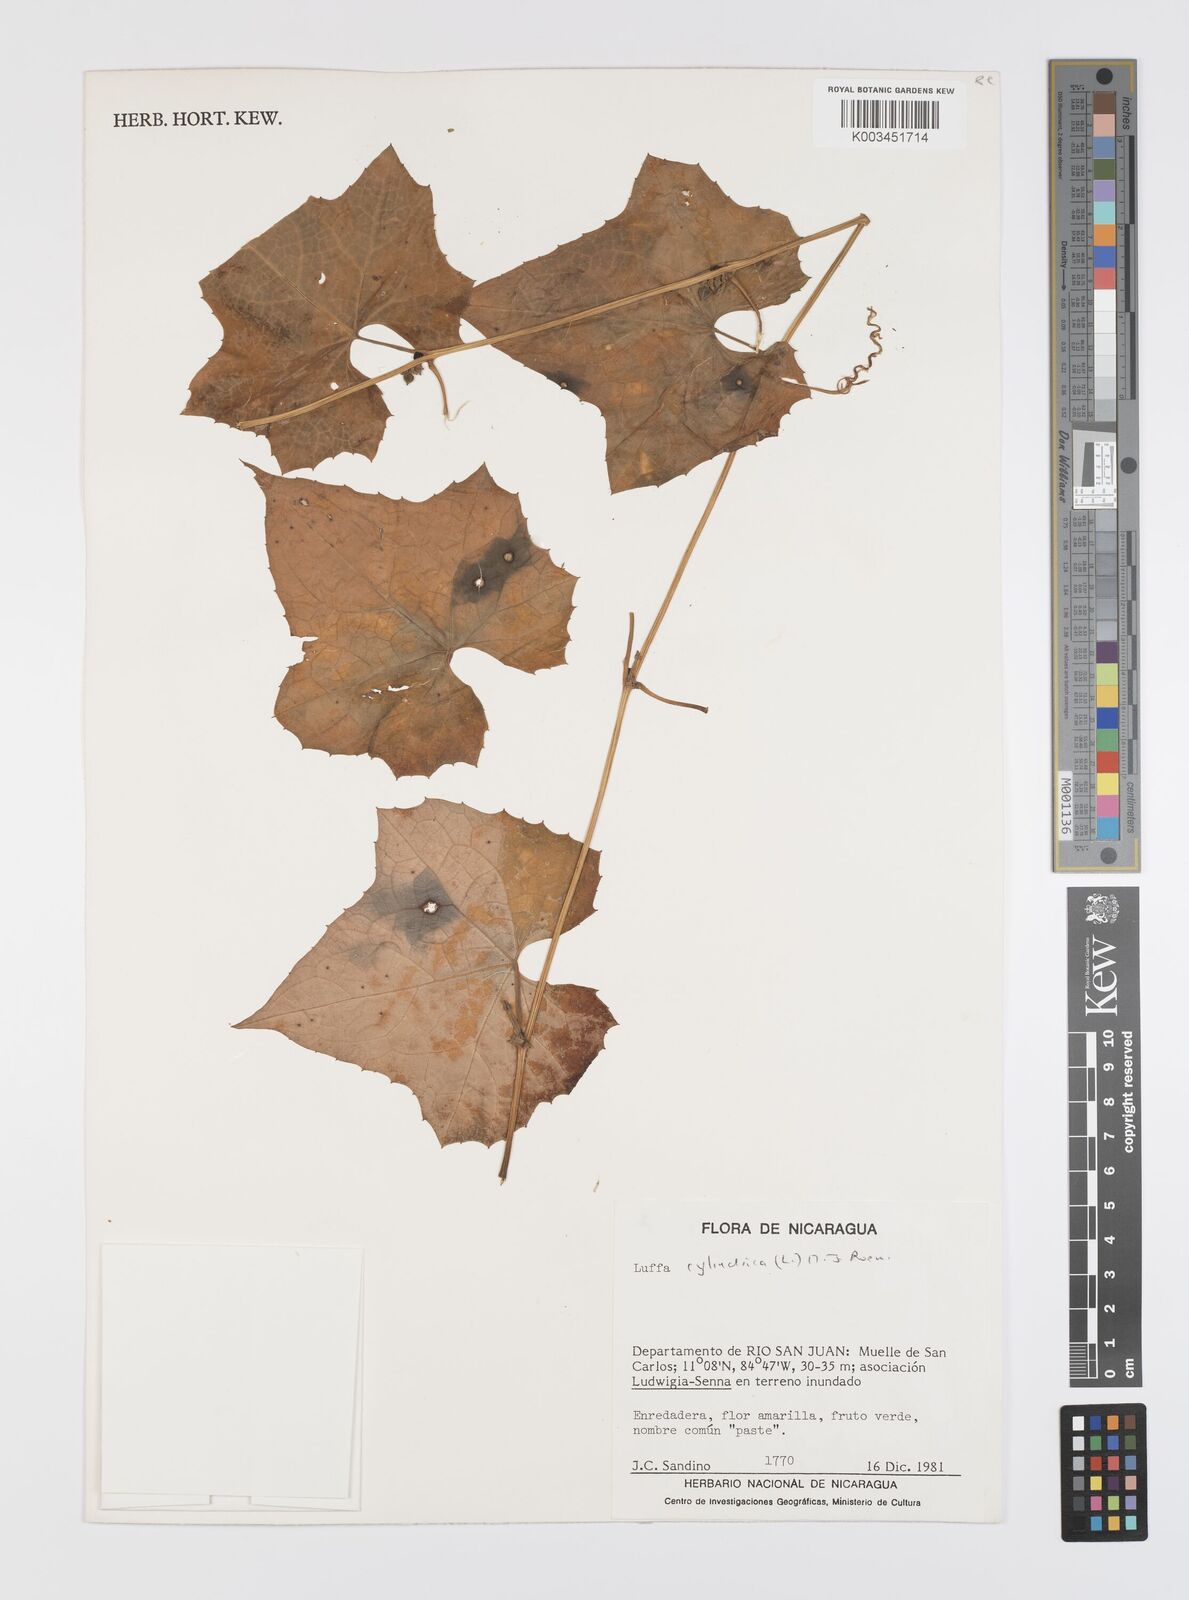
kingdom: Plantae
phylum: Tracheophyta
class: Magnoliopsida
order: Cucurbitales
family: Cucurbitaceae
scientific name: Cucurbitaceae
